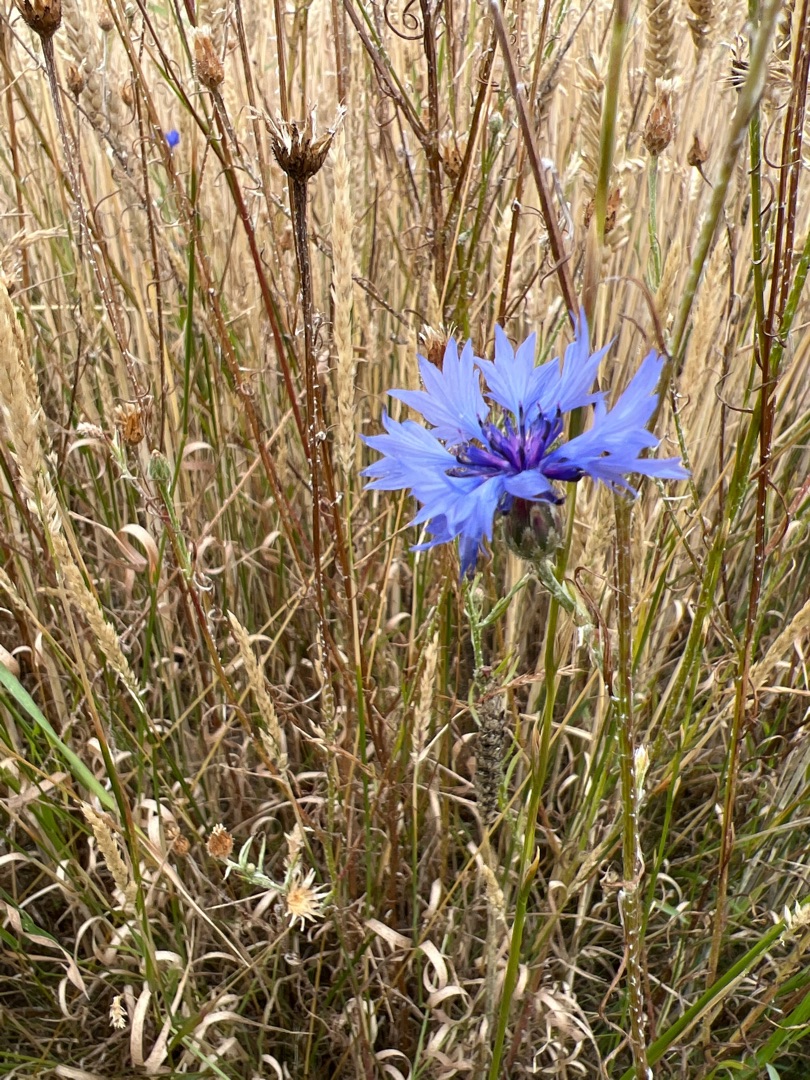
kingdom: Plantae
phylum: Tracheophyta
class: Magnoliopsida
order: Asterales
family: Asteraceae
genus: Centaurea
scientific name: Centaurea cyanus
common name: Kornblomst
